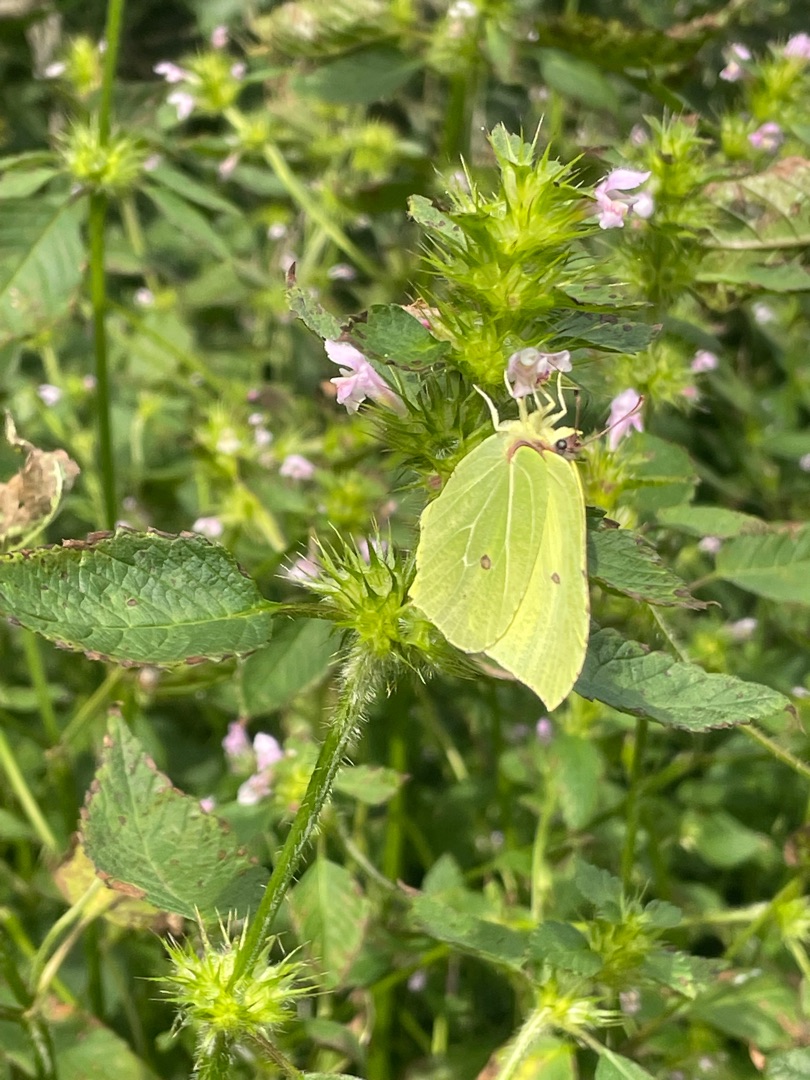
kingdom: Animalia
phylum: Arthropoda
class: Insecta
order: Lepidoptera
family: Pieridae
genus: Gonepteryx
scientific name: Gonepteryx rhamni
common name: Citronsommerfugl
